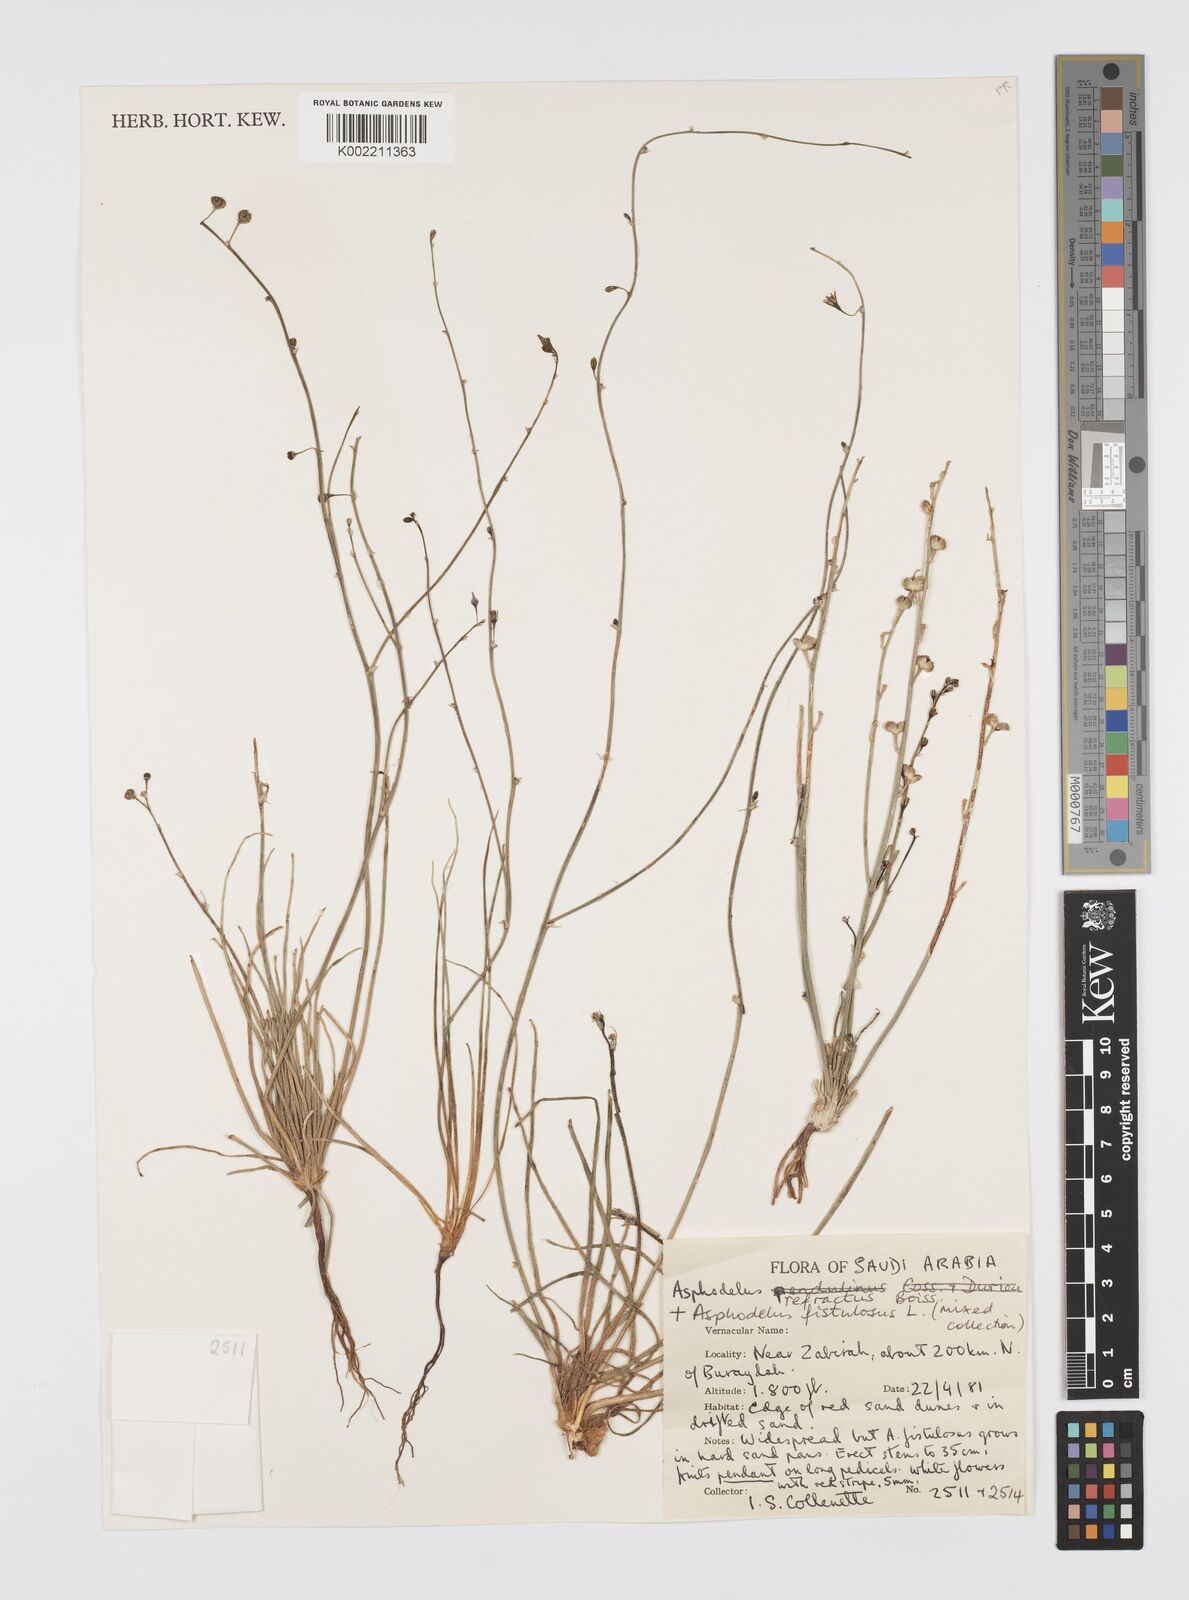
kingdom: Plantae
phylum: Tracheophyta
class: Liliopsida
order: Asparagales
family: Asphodelaceae
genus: Asphodelus
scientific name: Asphodelus refractus
